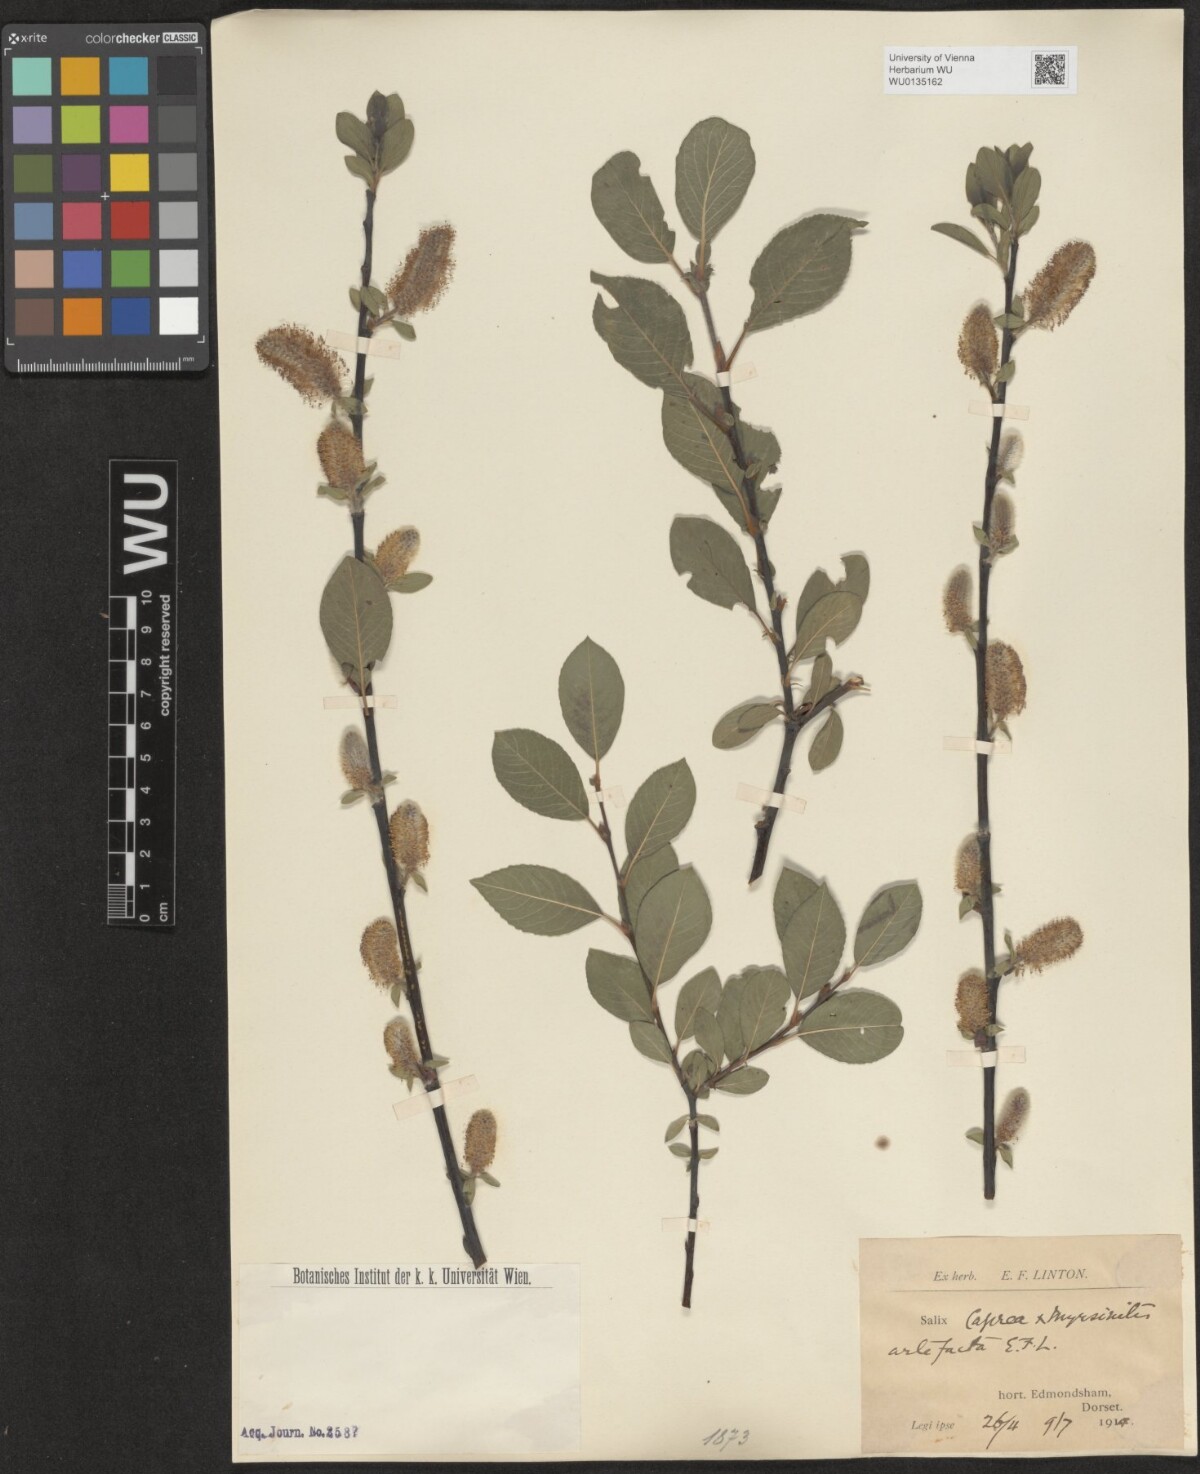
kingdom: Plantae
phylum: Tracheophyta
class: Magnoliopsida
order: Malpighiales
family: Salicaceae
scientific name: Salicaceae
